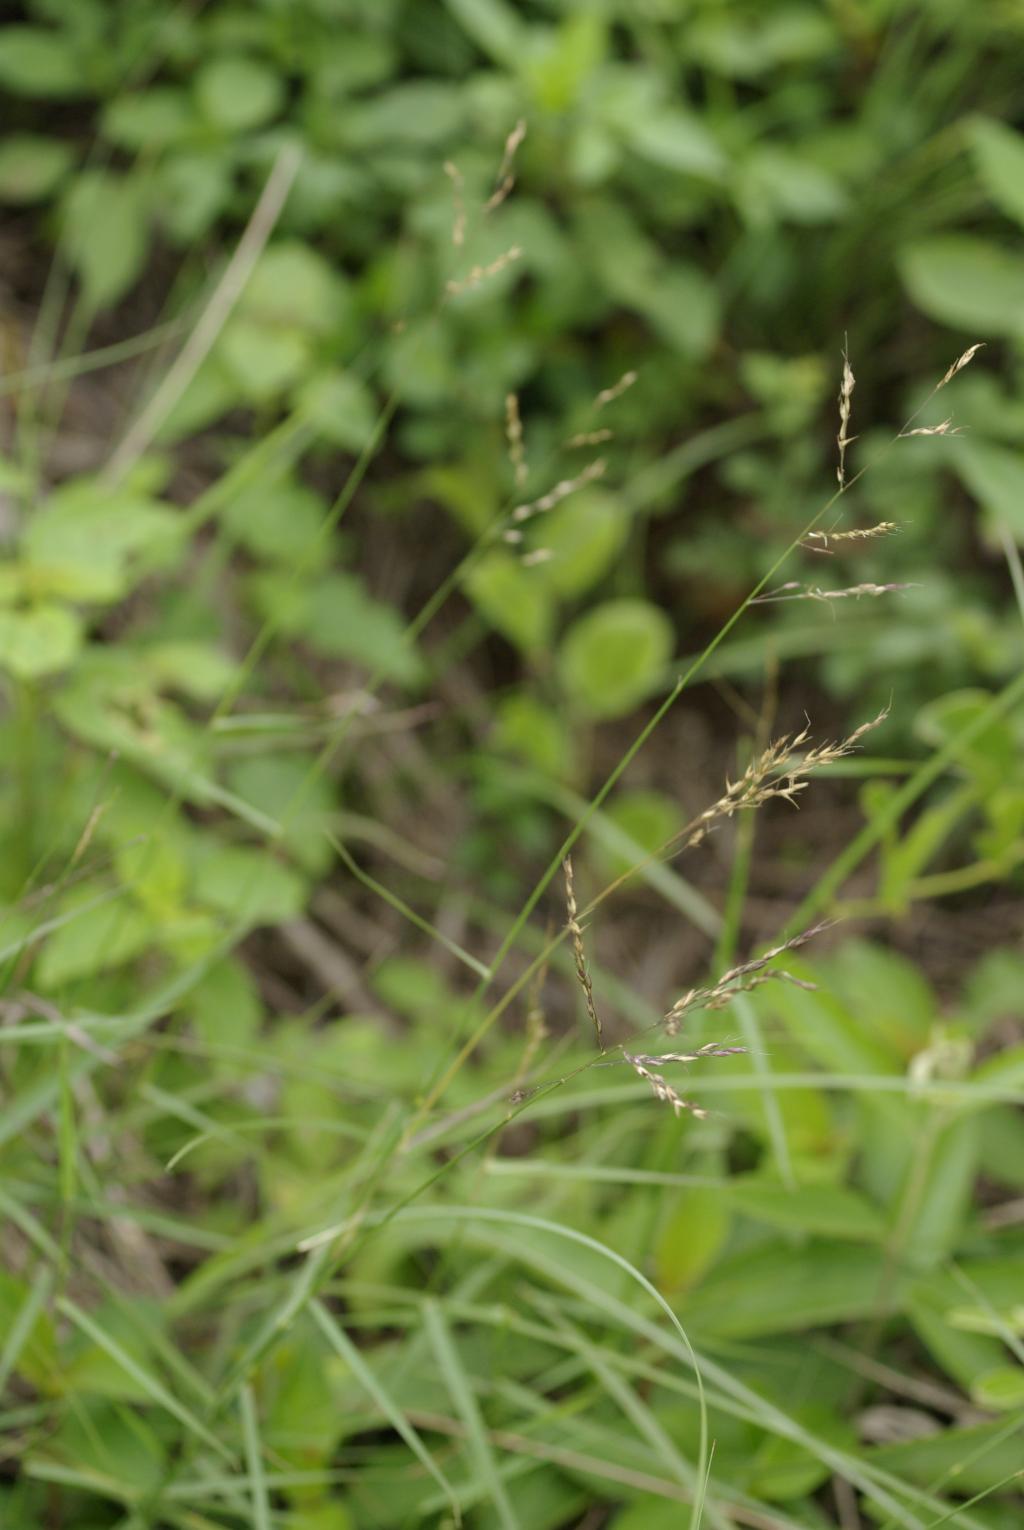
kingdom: Plantae
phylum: Tracheophyta
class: Liliopsida
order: Poales
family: Poaceae
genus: Arundinella
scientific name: Arundinella setosa
